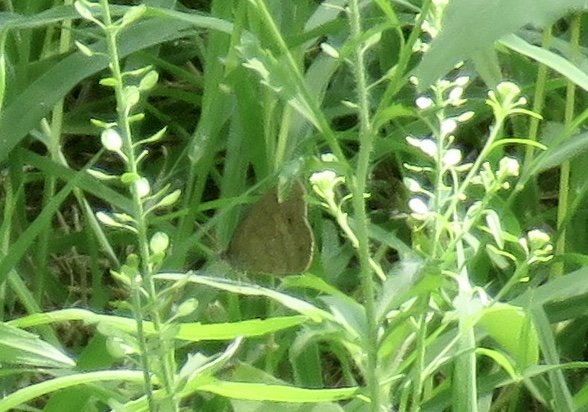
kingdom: Animalia
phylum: Arthropoda
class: Insecta
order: Lepidoptera
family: Nymphalidae
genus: Hermeuptychia
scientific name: Hermeuptychia hermes
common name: Carolina Satyr
